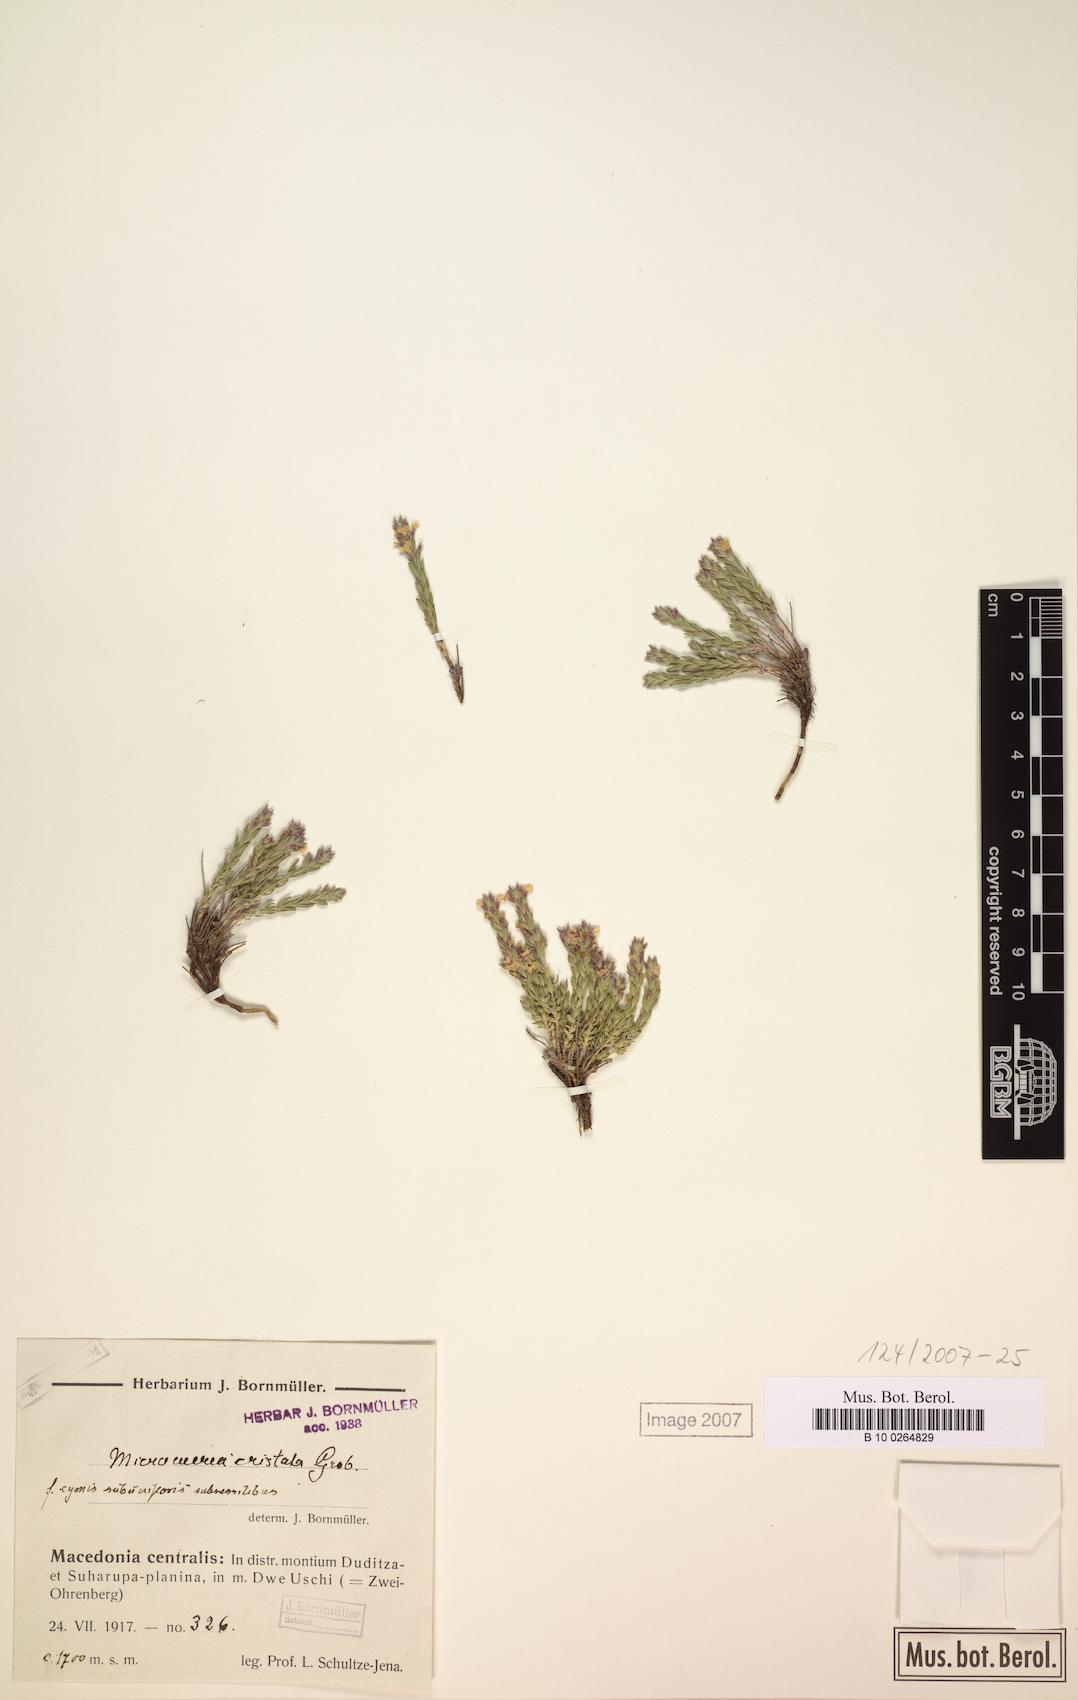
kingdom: Plantae
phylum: Tracheophyta
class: Magnoliopsida
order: Lamiales
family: Lamiaceae
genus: Micromeria
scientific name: Micromeria cristata
